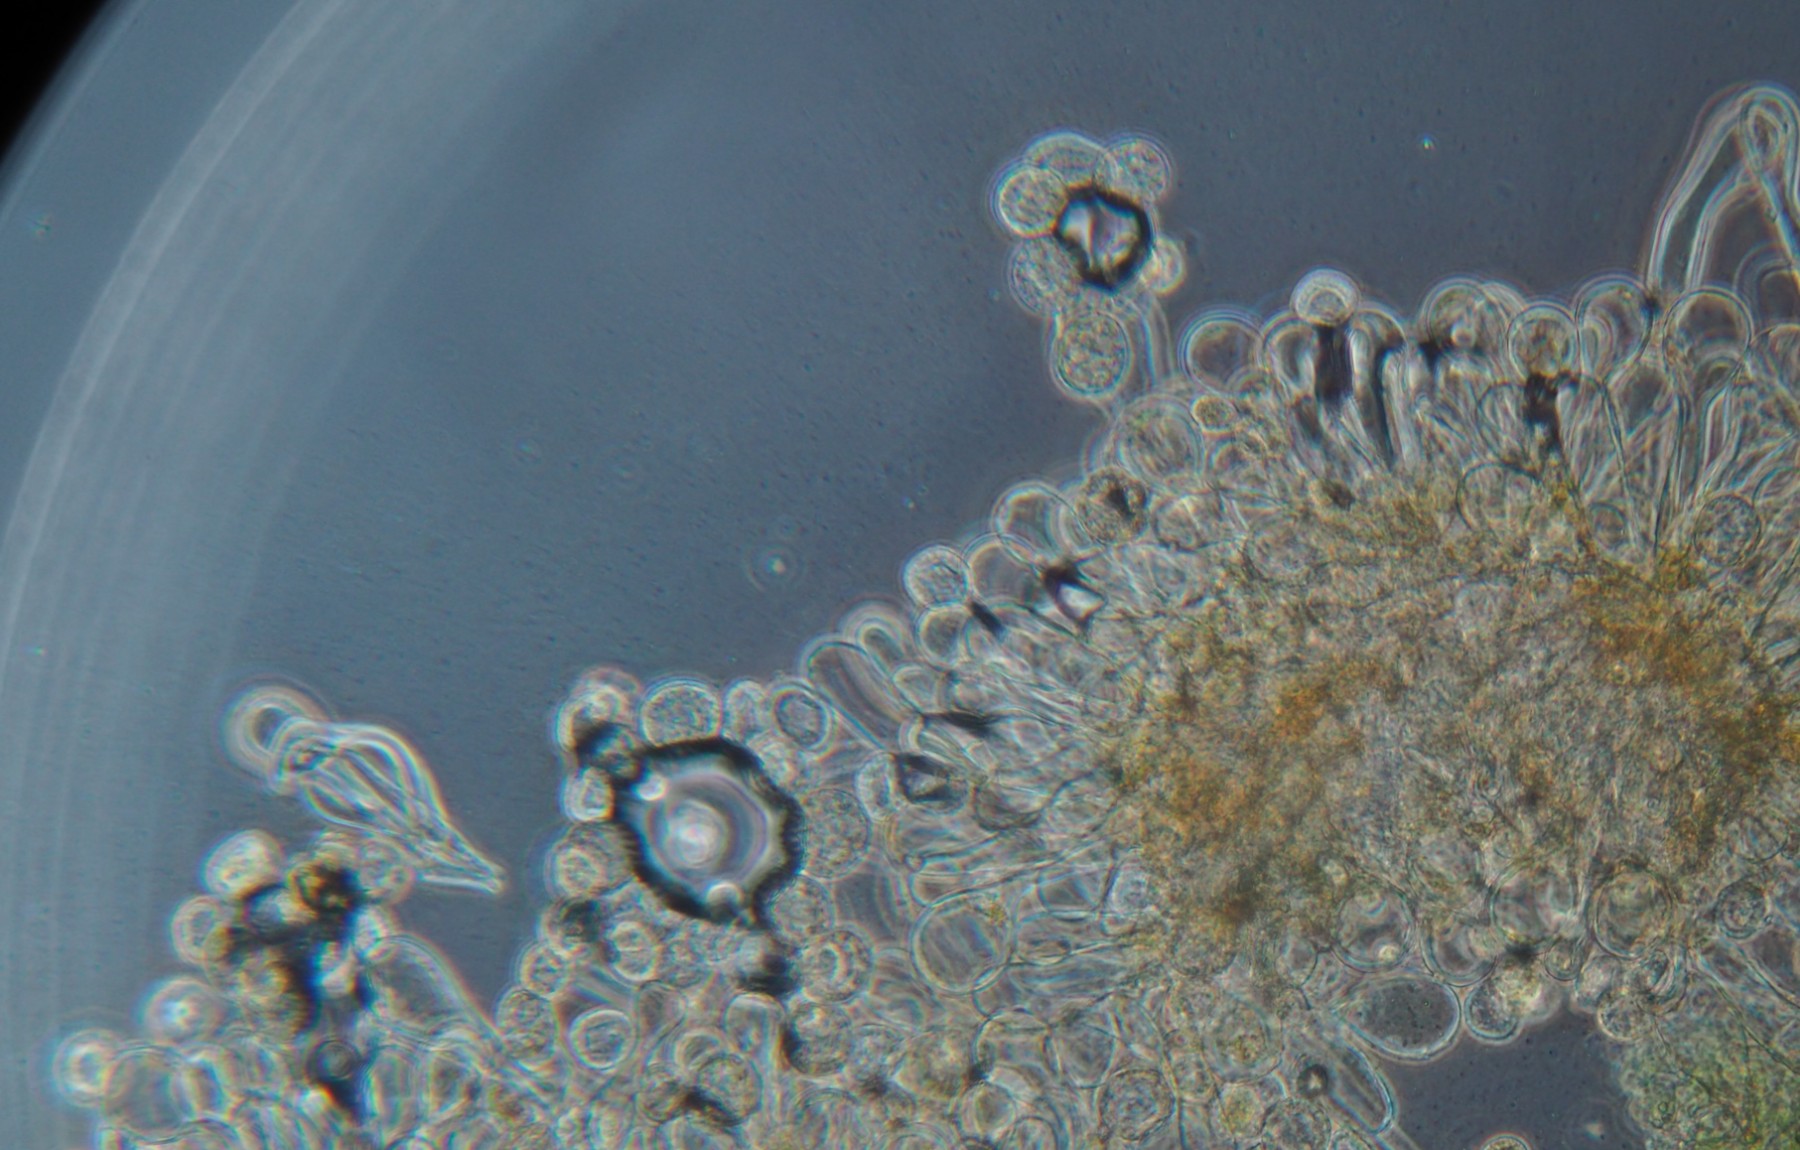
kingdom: Fungi
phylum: Basidiomycota
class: Pucciniomycetes
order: Pucciniales
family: Melampsoraceae
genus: Melampsora
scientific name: Melampsora epitea
